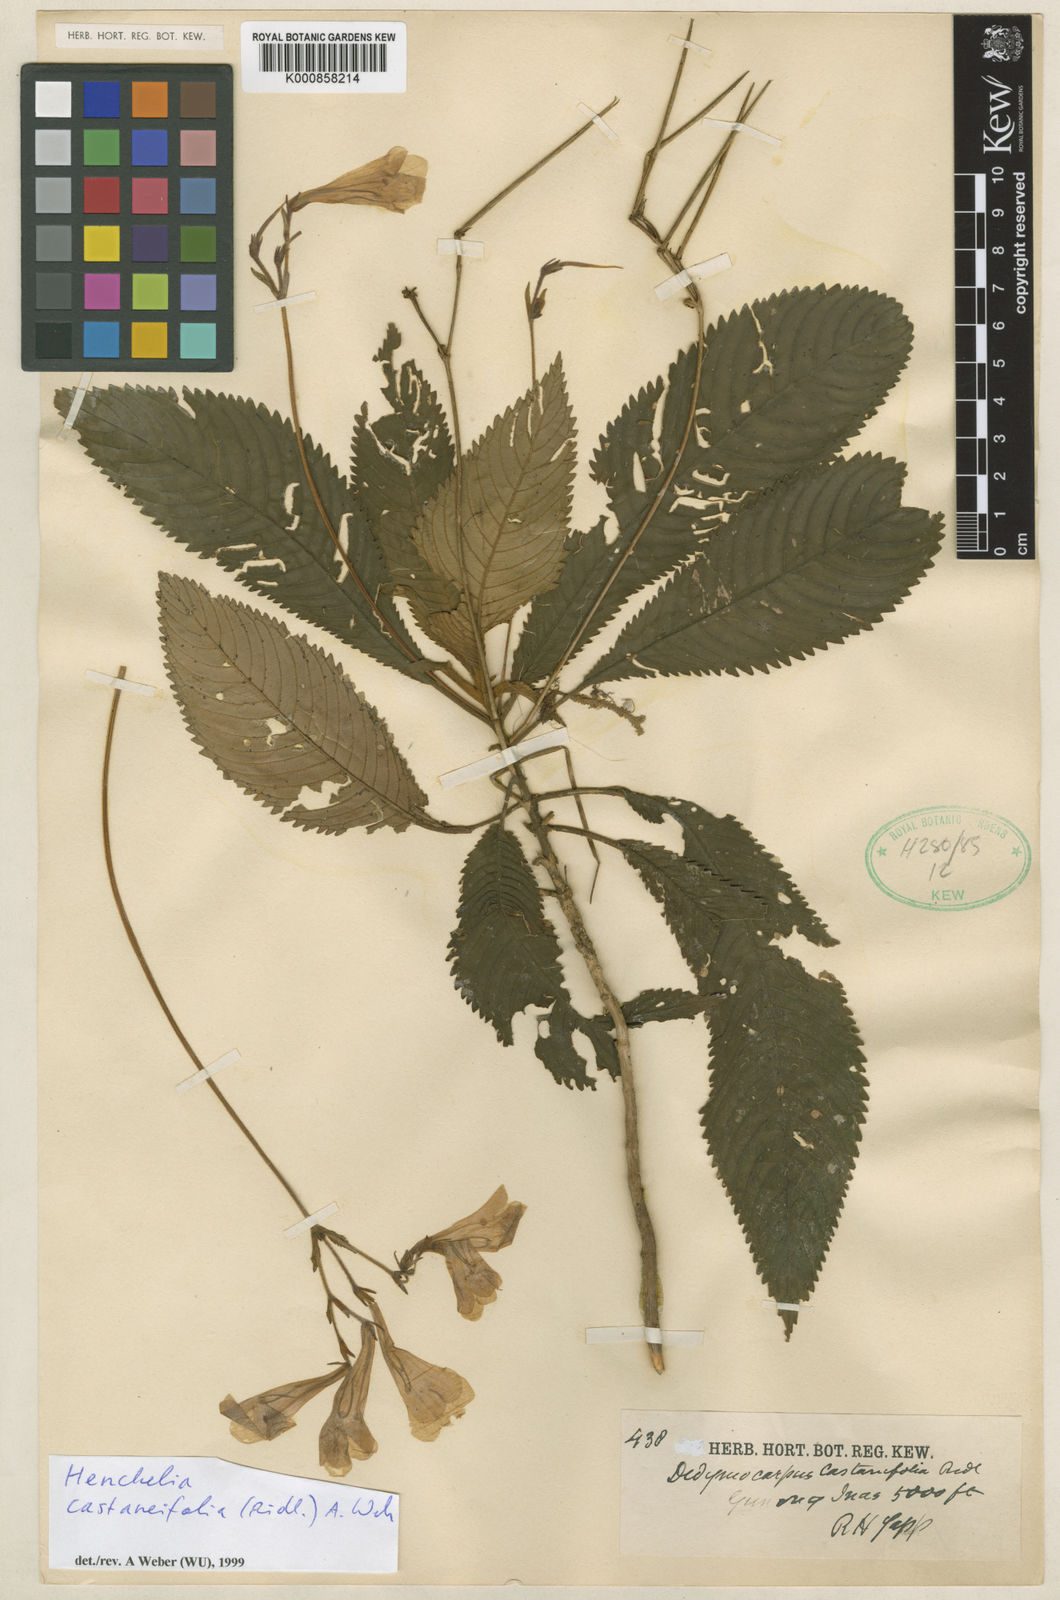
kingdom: Plantae
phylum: Tracheophyta
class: Magnoliopsida
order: Lamiales
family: Gesneriaceae
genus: Codonoboea
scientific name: Codonoboea castaneifolia
